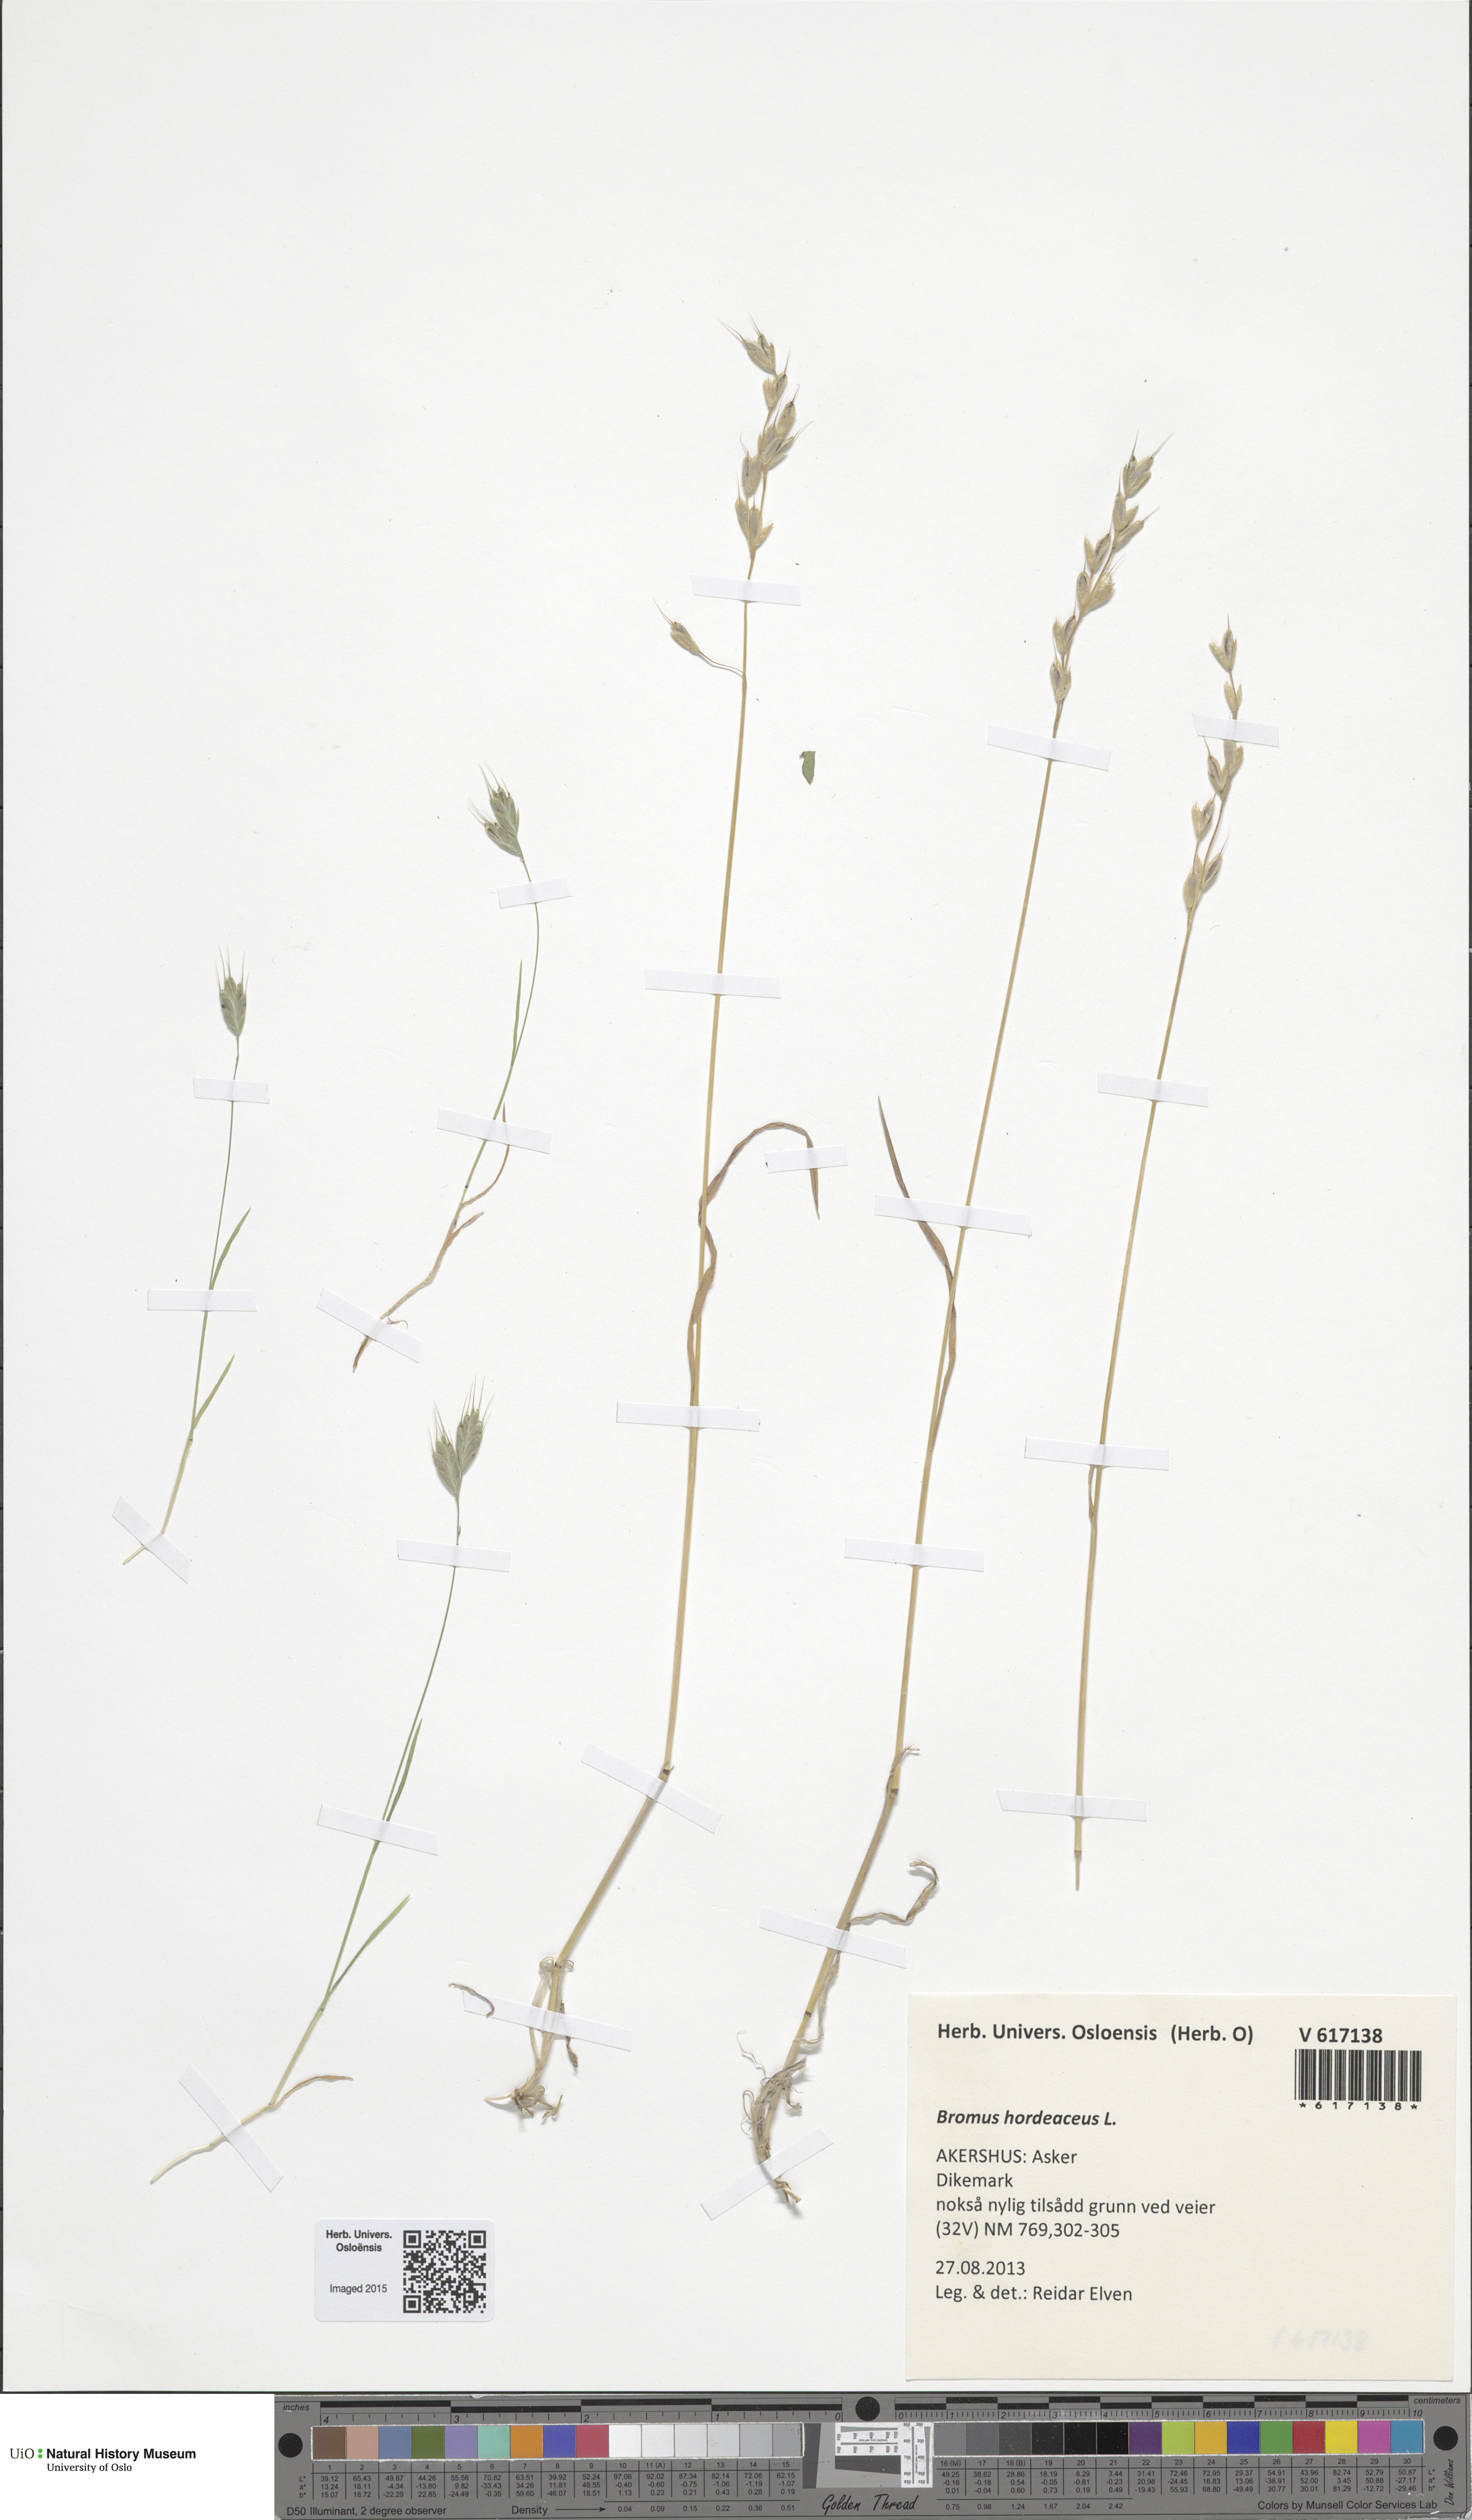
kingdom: Plantae
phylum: Tracheophyta
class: Liliopsida
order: Poales
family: Poaceae
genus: Bromus
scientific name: Bromus hordeaceus
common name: Soft brome
